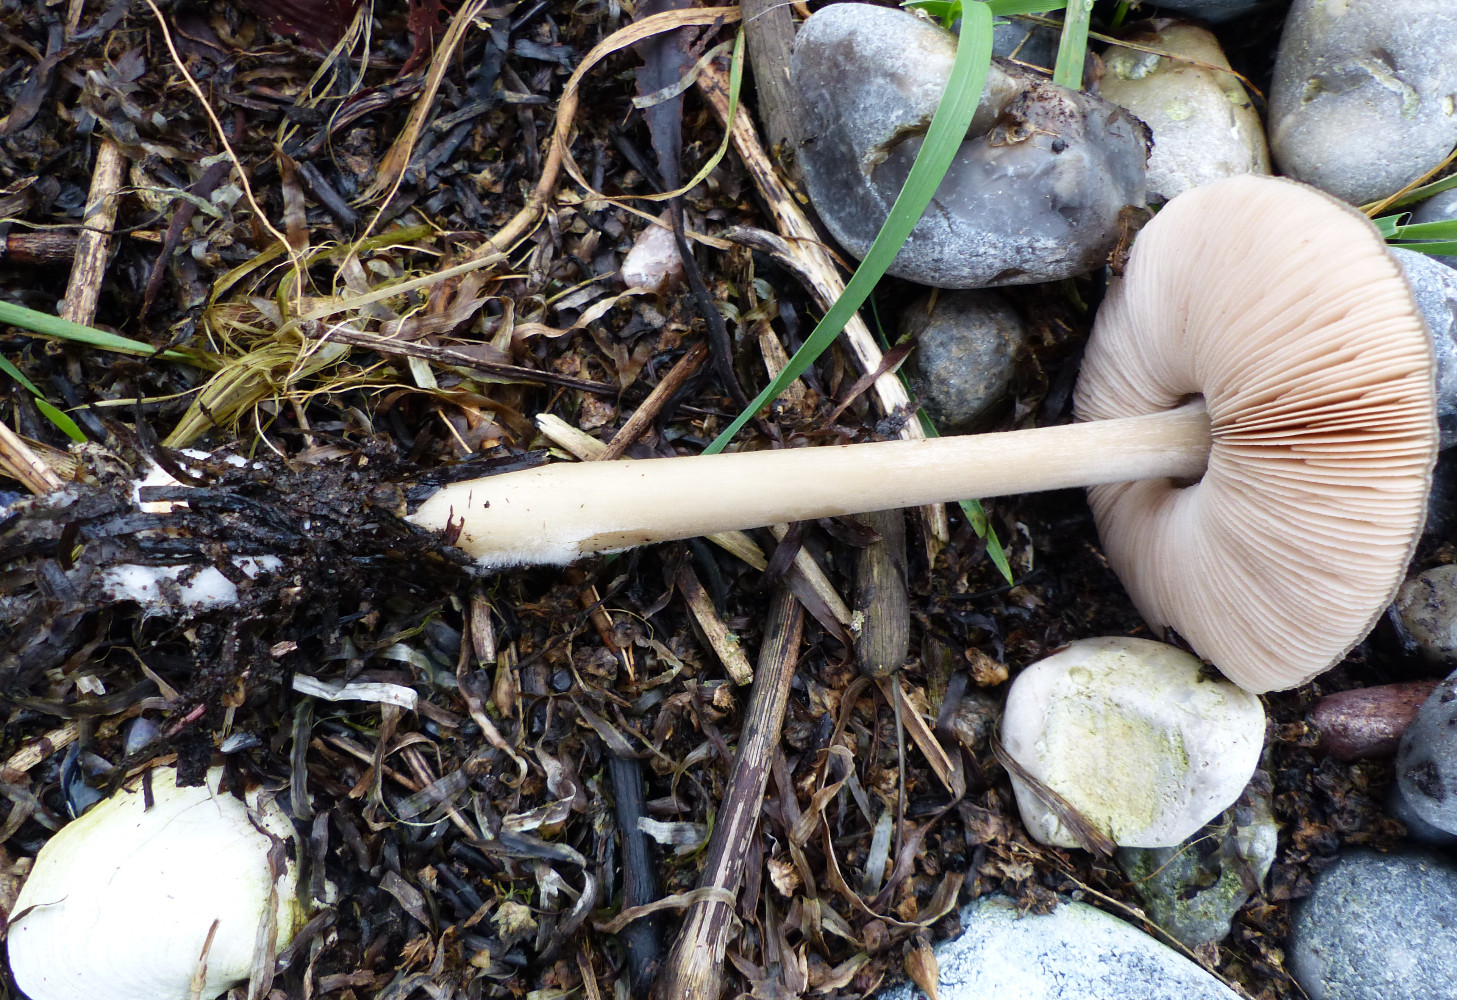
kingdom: Fungi
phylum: Basidiomycota
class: Agaricomycetes
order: Agaricales
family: Pluteaceae
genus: Volvopluteus
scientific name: Volvopluteus gloiocephalus
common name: høj posesvamp
